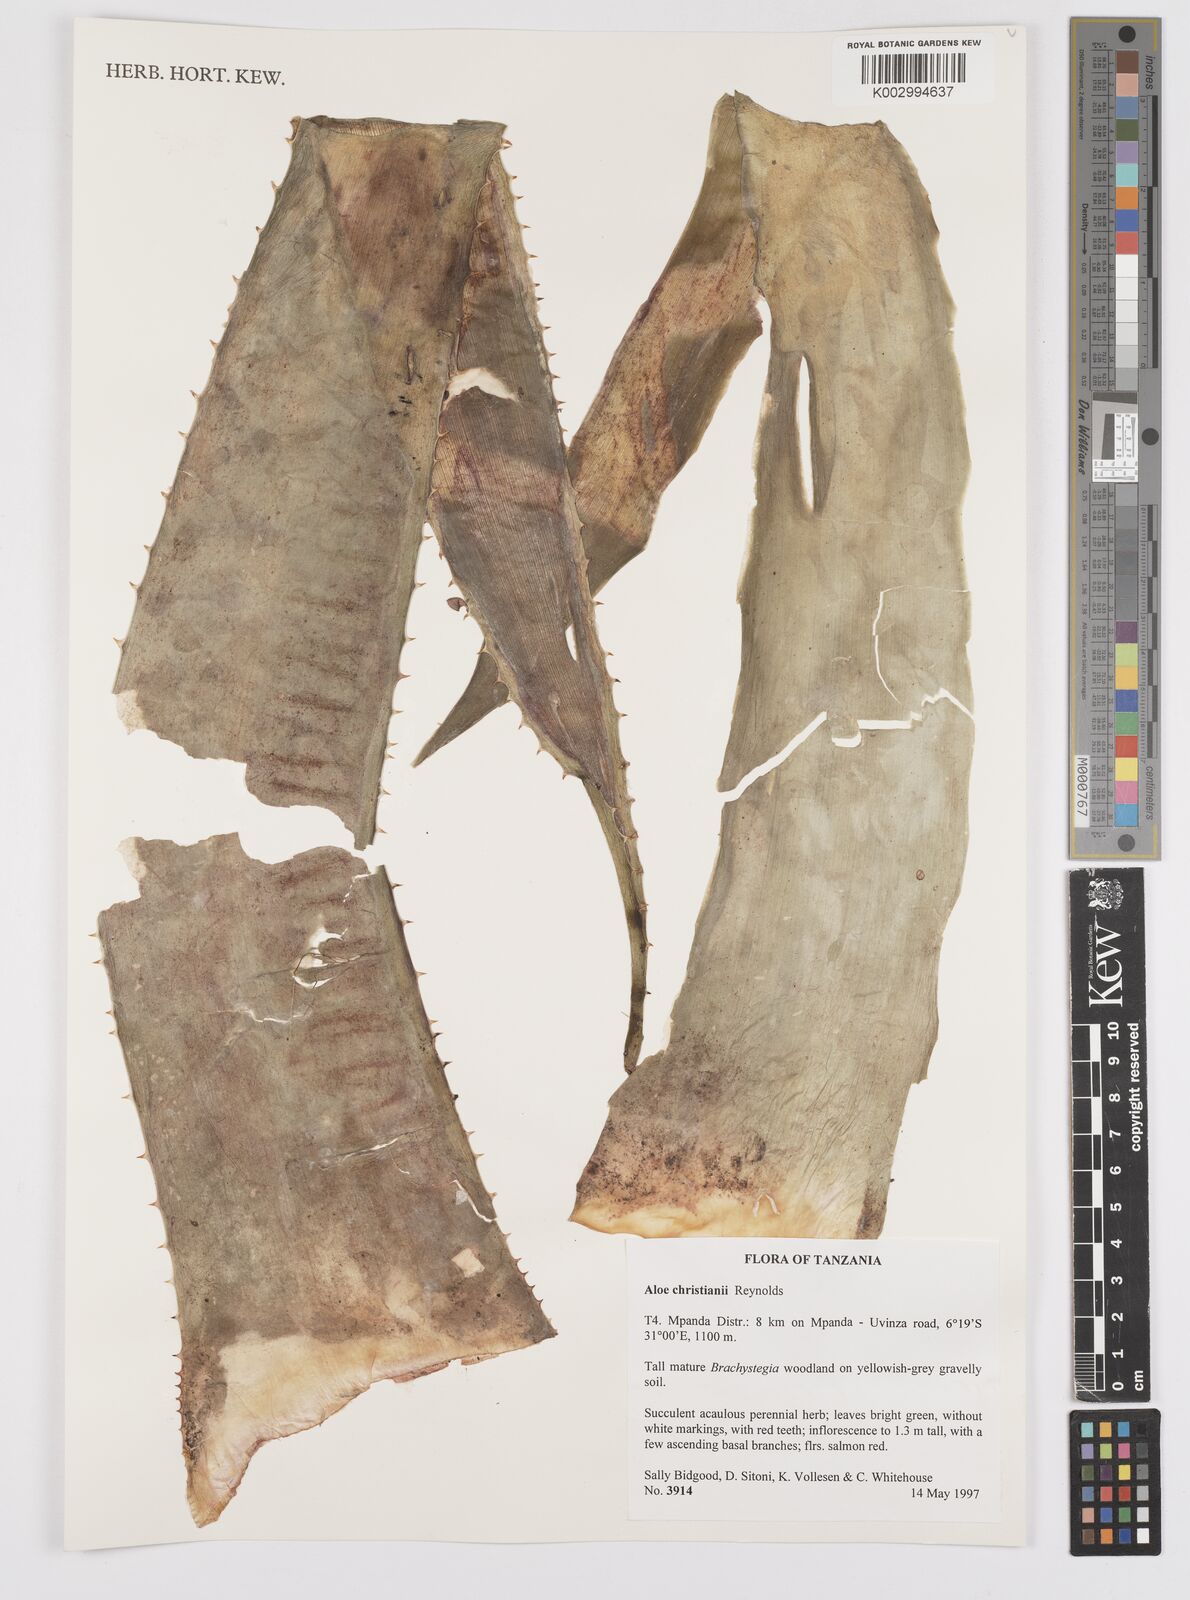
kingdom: Plantae
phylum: Tracheophyta
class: Liliopsida
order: Asparagales
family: Asphodelaceae
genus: Aloe
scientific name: Aloe christianii
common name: Basil christian's aloe
